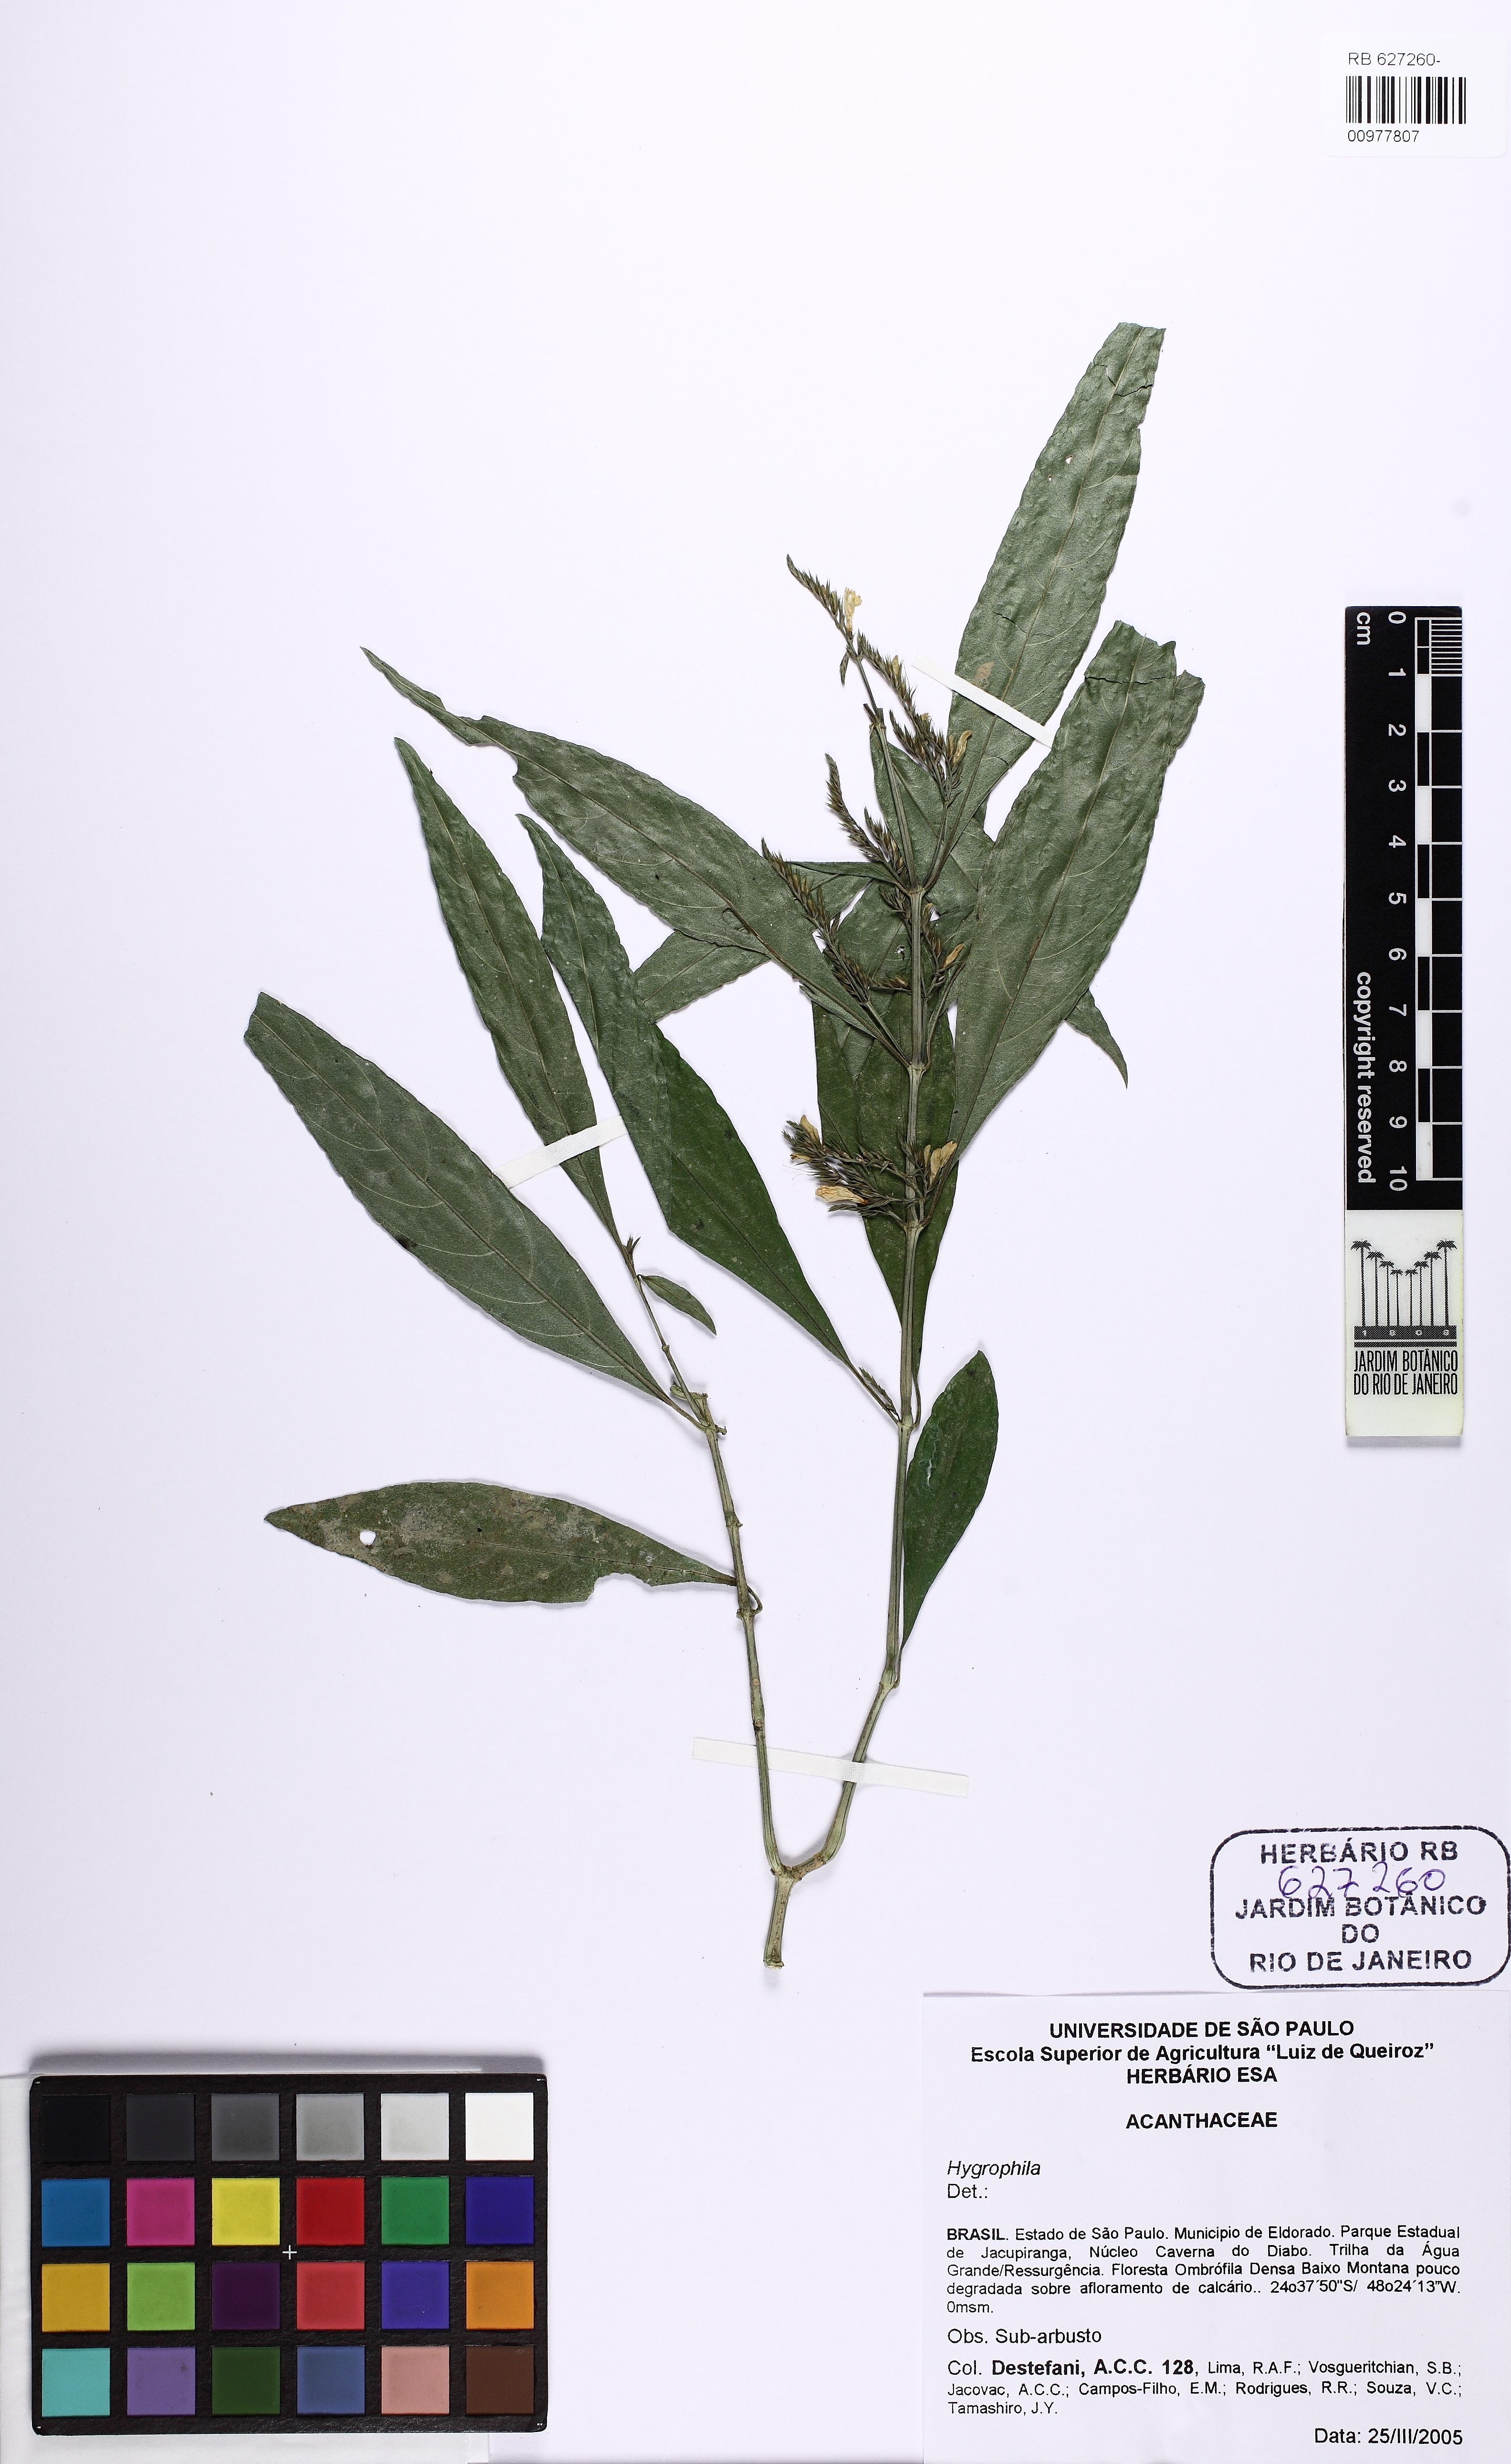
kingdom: Plantae
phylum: Tracheophyta
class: Magnoliopsida
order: Lamiales
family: Acanthaceae
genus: Hygrophila
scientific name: Hygrophila
